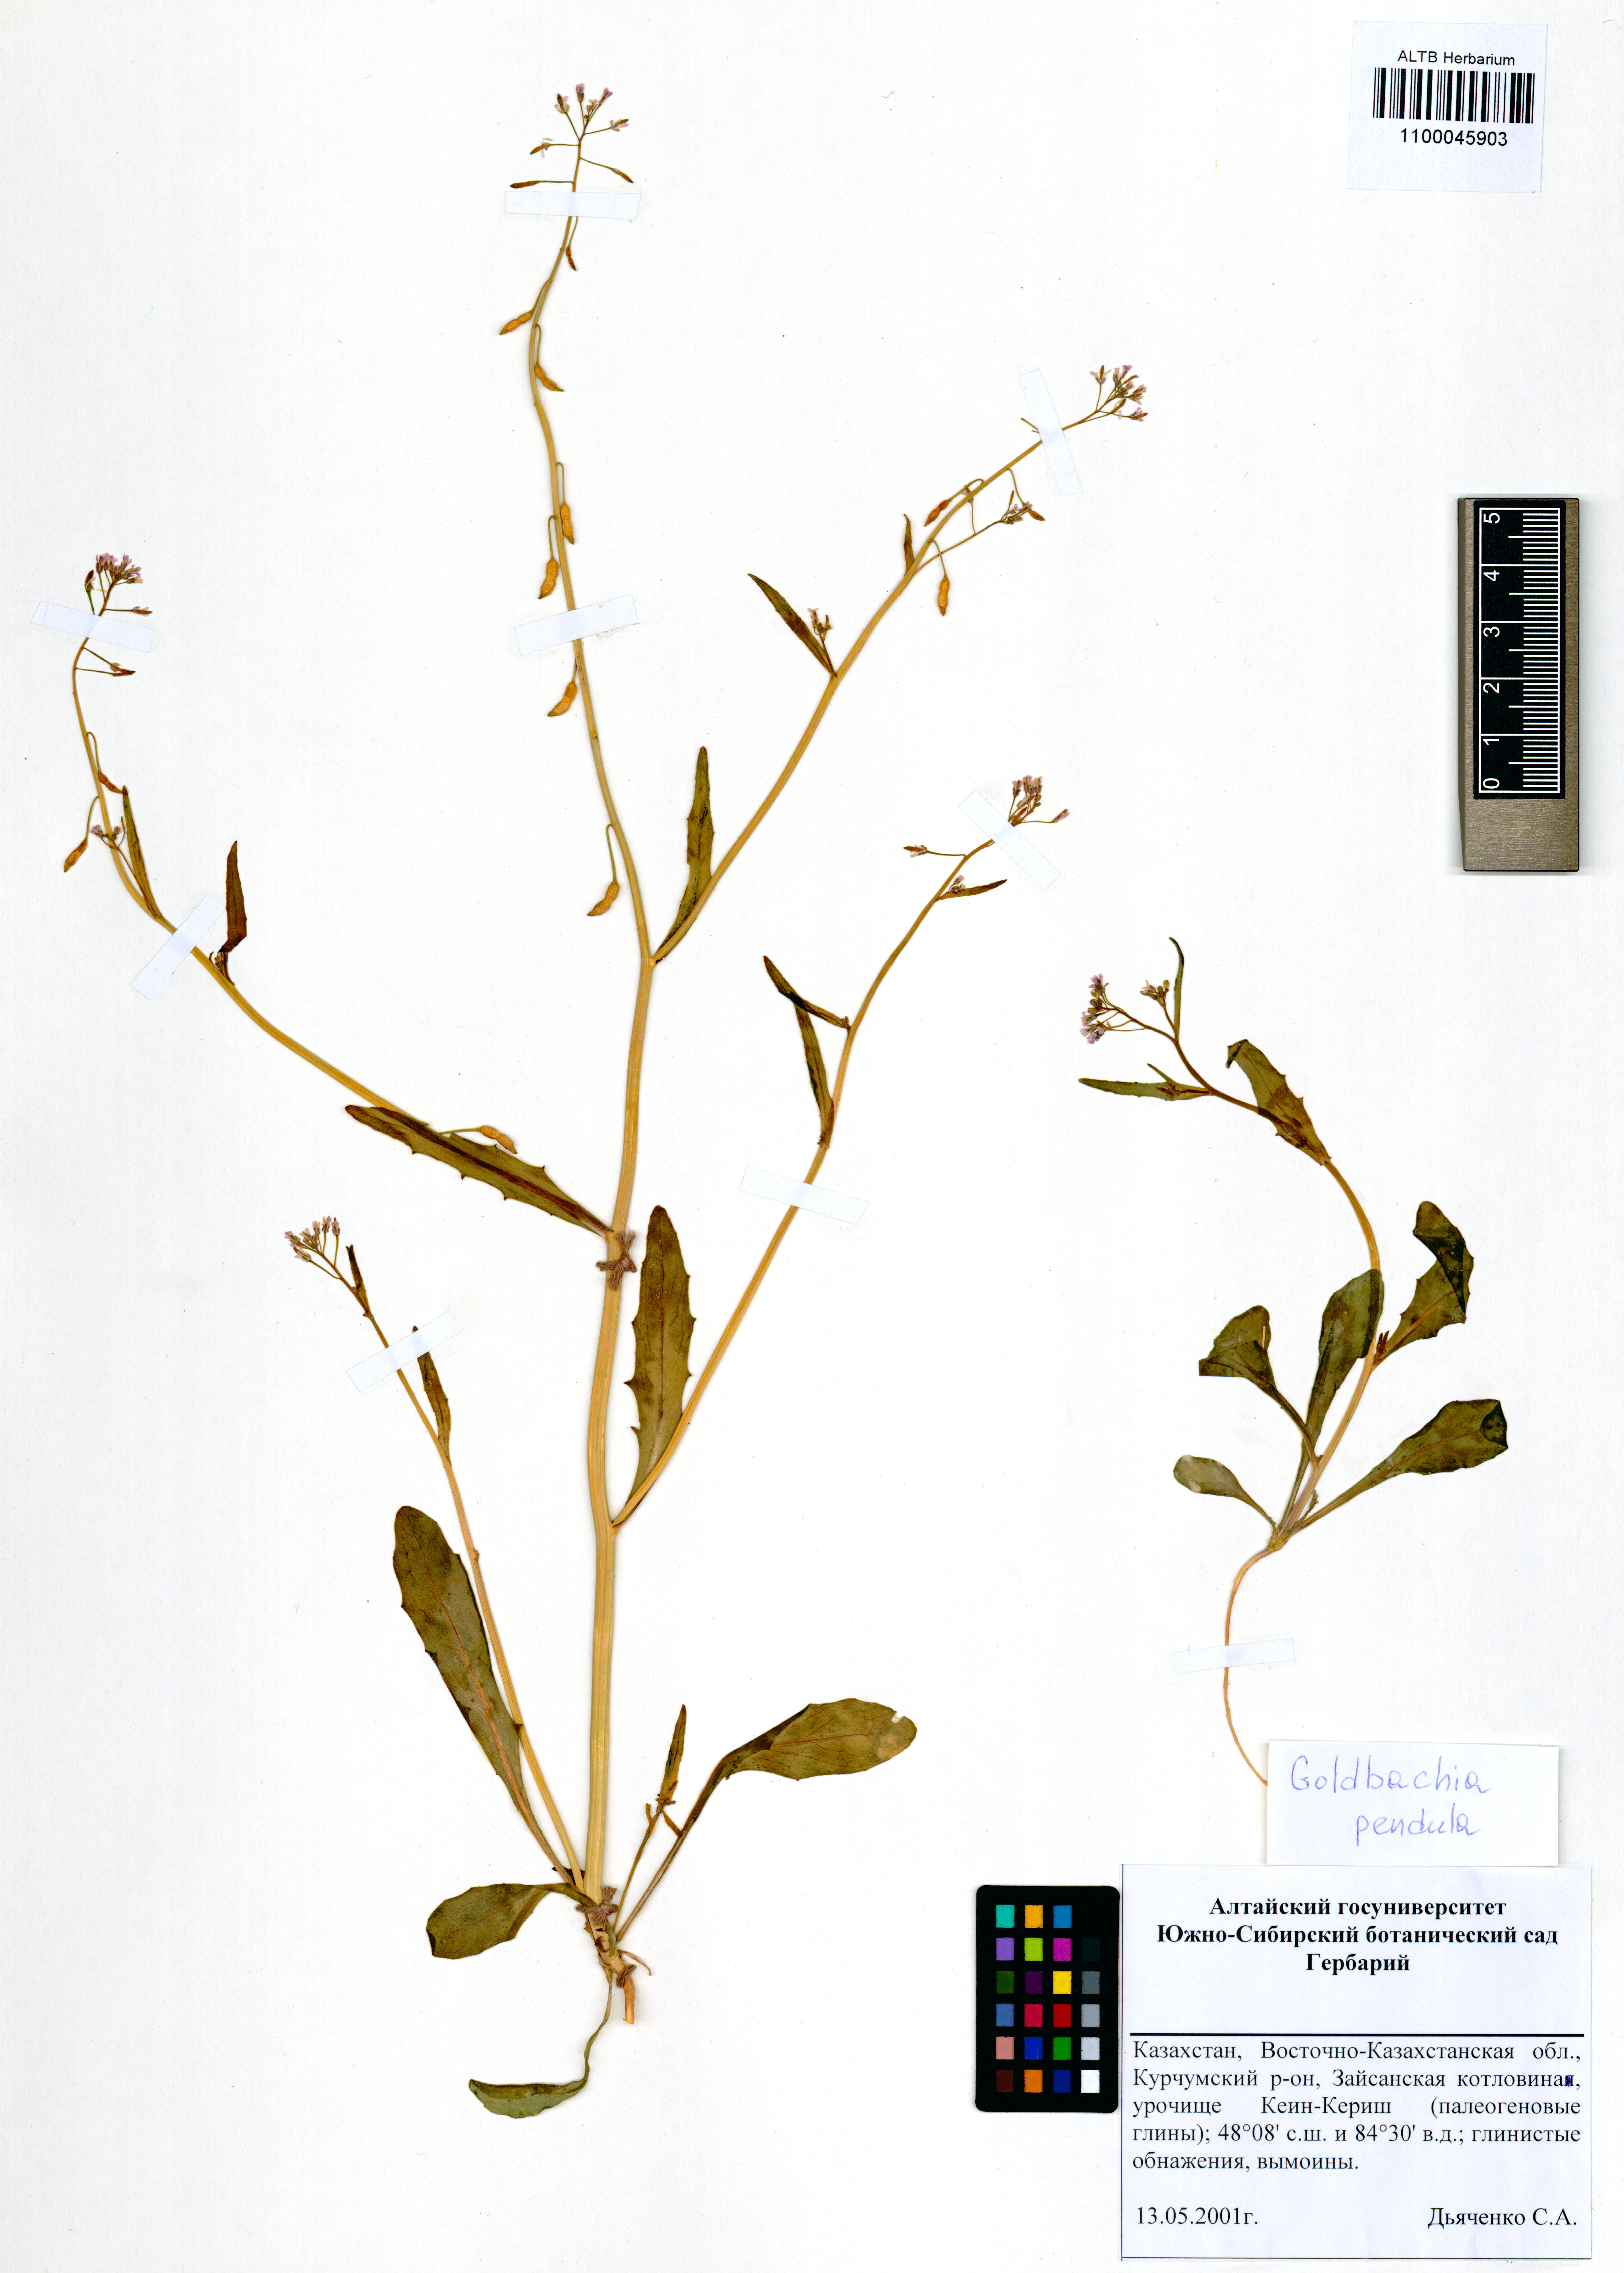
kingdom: Plantae
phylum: Tracheophyta
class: Magnoliopsida
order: Brassicales
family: Brassicaceae
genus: Goldbachia
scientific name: Goldbachia pendula
